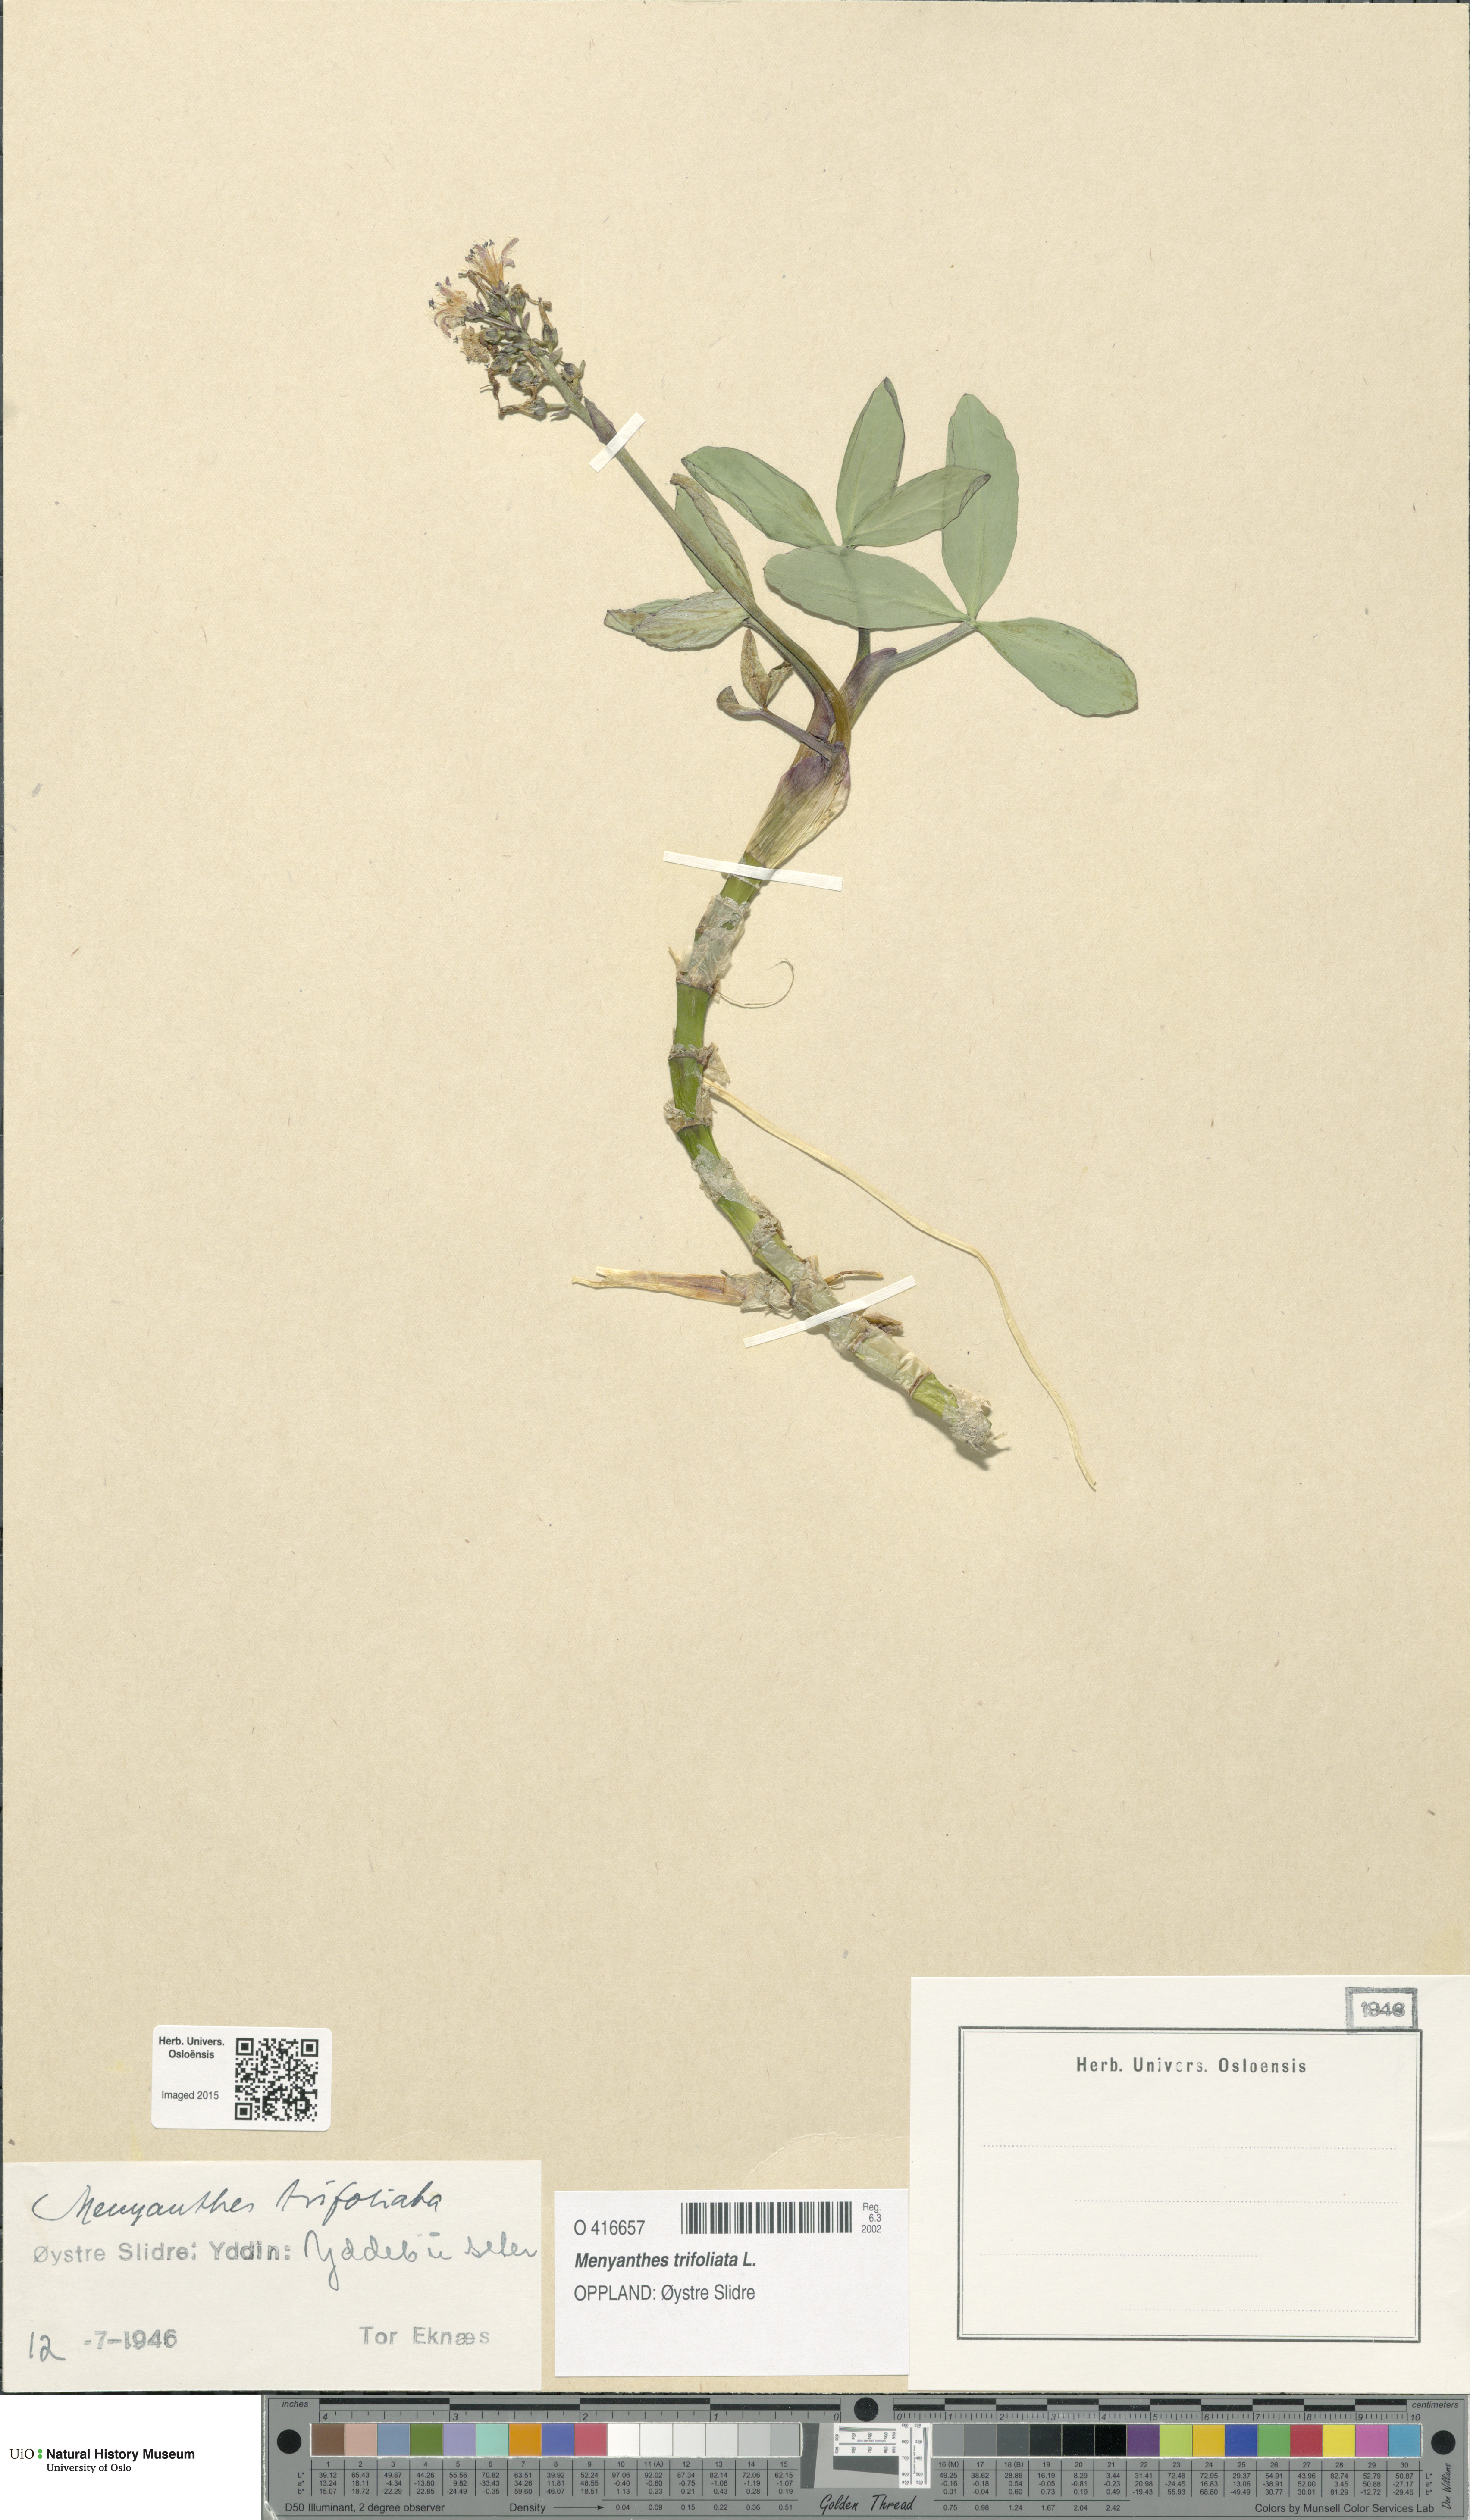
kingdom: Plantae
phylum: Tracheophyta
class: Magnoliopsida
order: Asterales
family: Menyanthaceae
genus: Menyanthes
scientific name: Menyanthes trifoliata
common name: Bogbean
